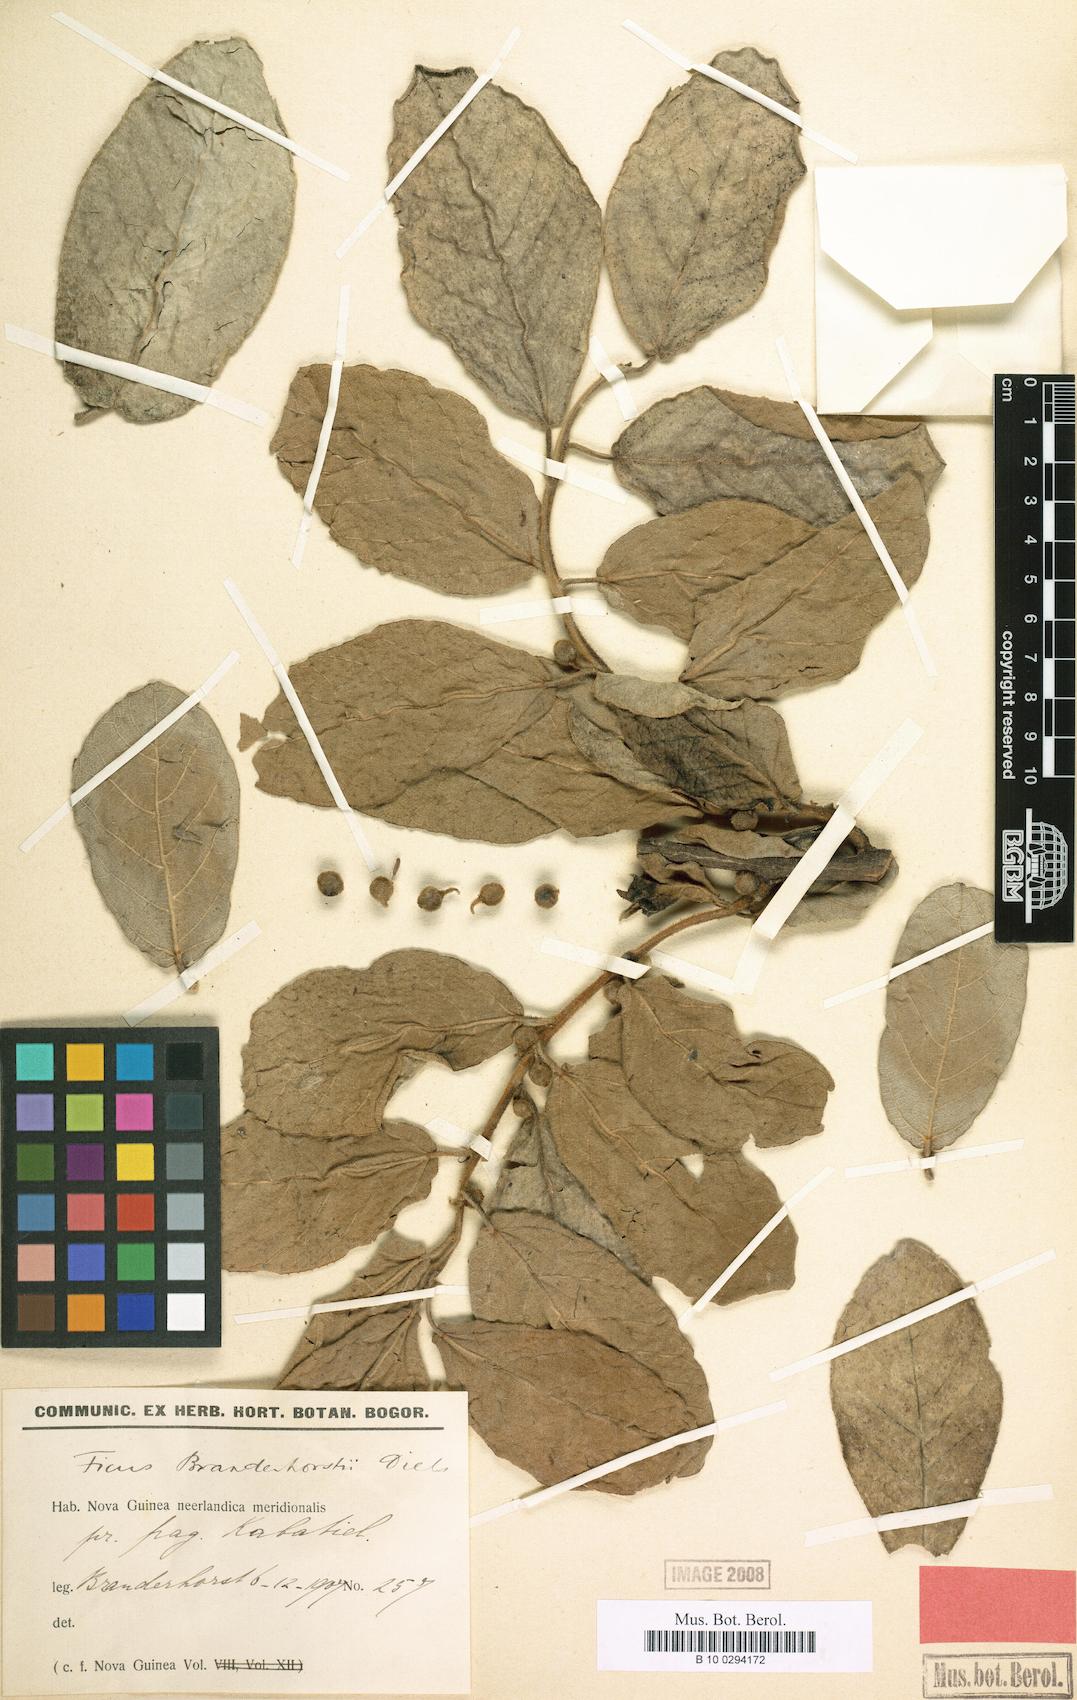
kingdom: Plantae
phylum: Tracheophyta
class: Magnoliopsida
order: Rosales
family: Moraceae
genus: Ficus
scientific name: Ficus opposita
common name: Figwood
